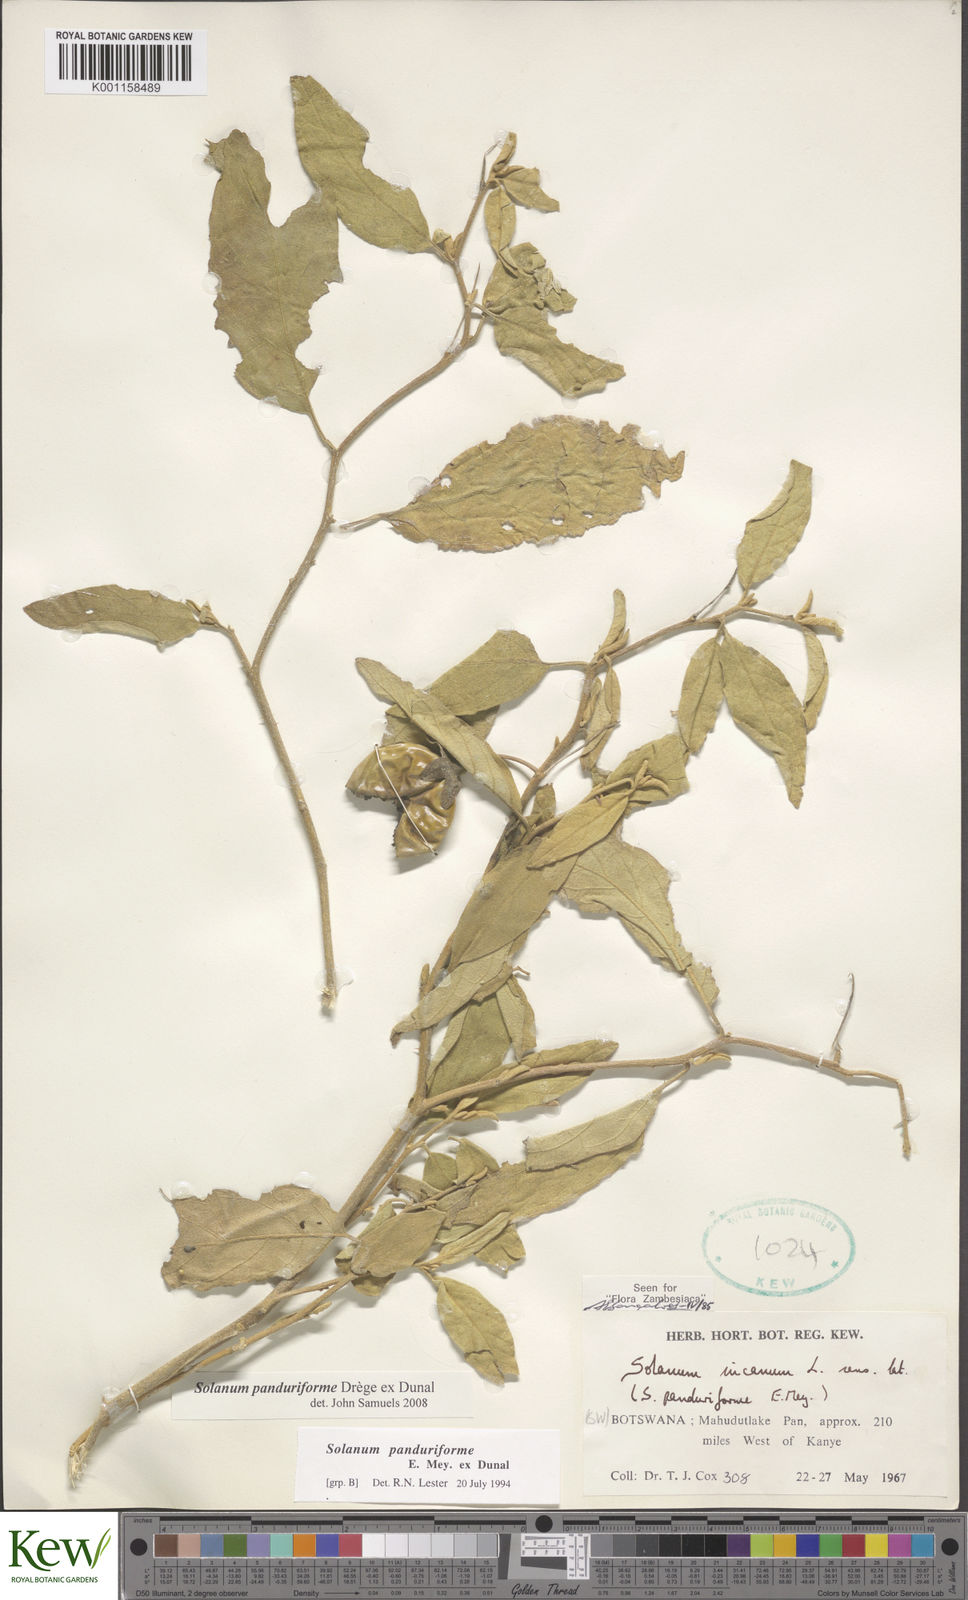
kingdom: Plantae
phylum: Tracheophyta
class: Magnoliopsida
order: Solanales
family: Solanaceae
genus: Solanum
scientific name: Solanum campylacanthum
